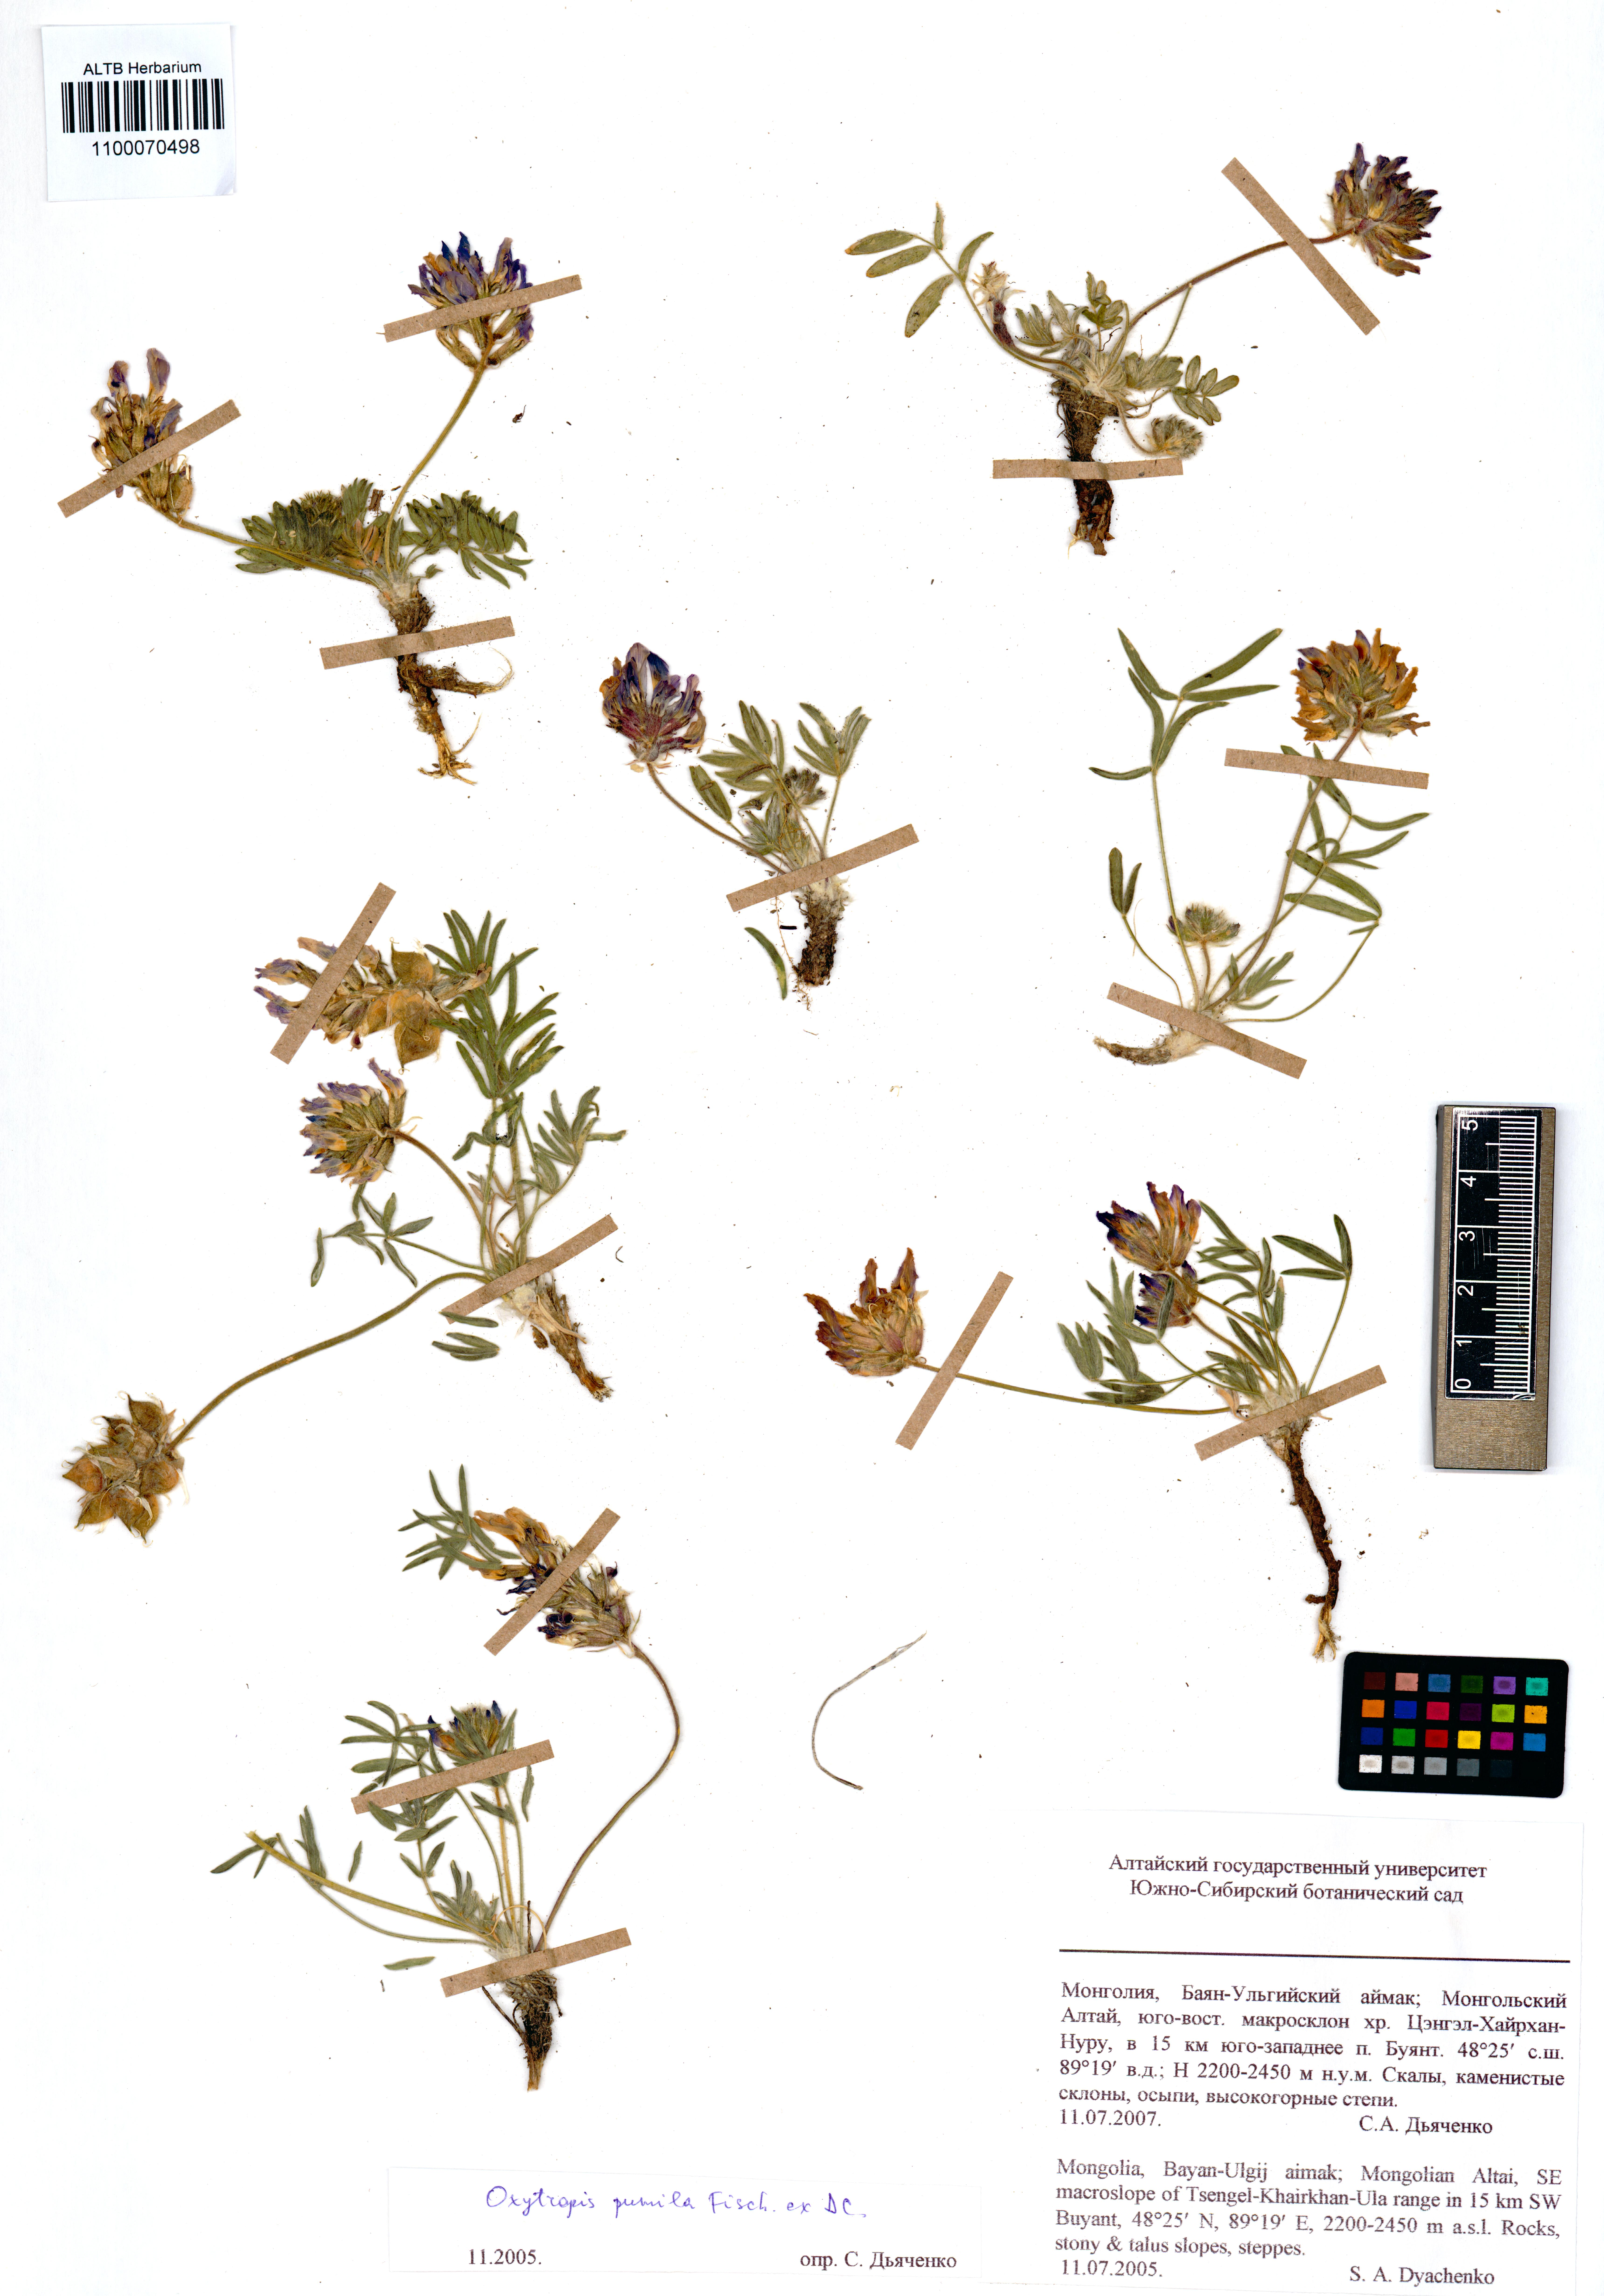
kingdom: Plantae
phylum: Tracheophyta
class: Magnoliopsida
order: Fabales
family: Fabaceae
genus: Oxytropis
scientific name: Oxytropis pumila
